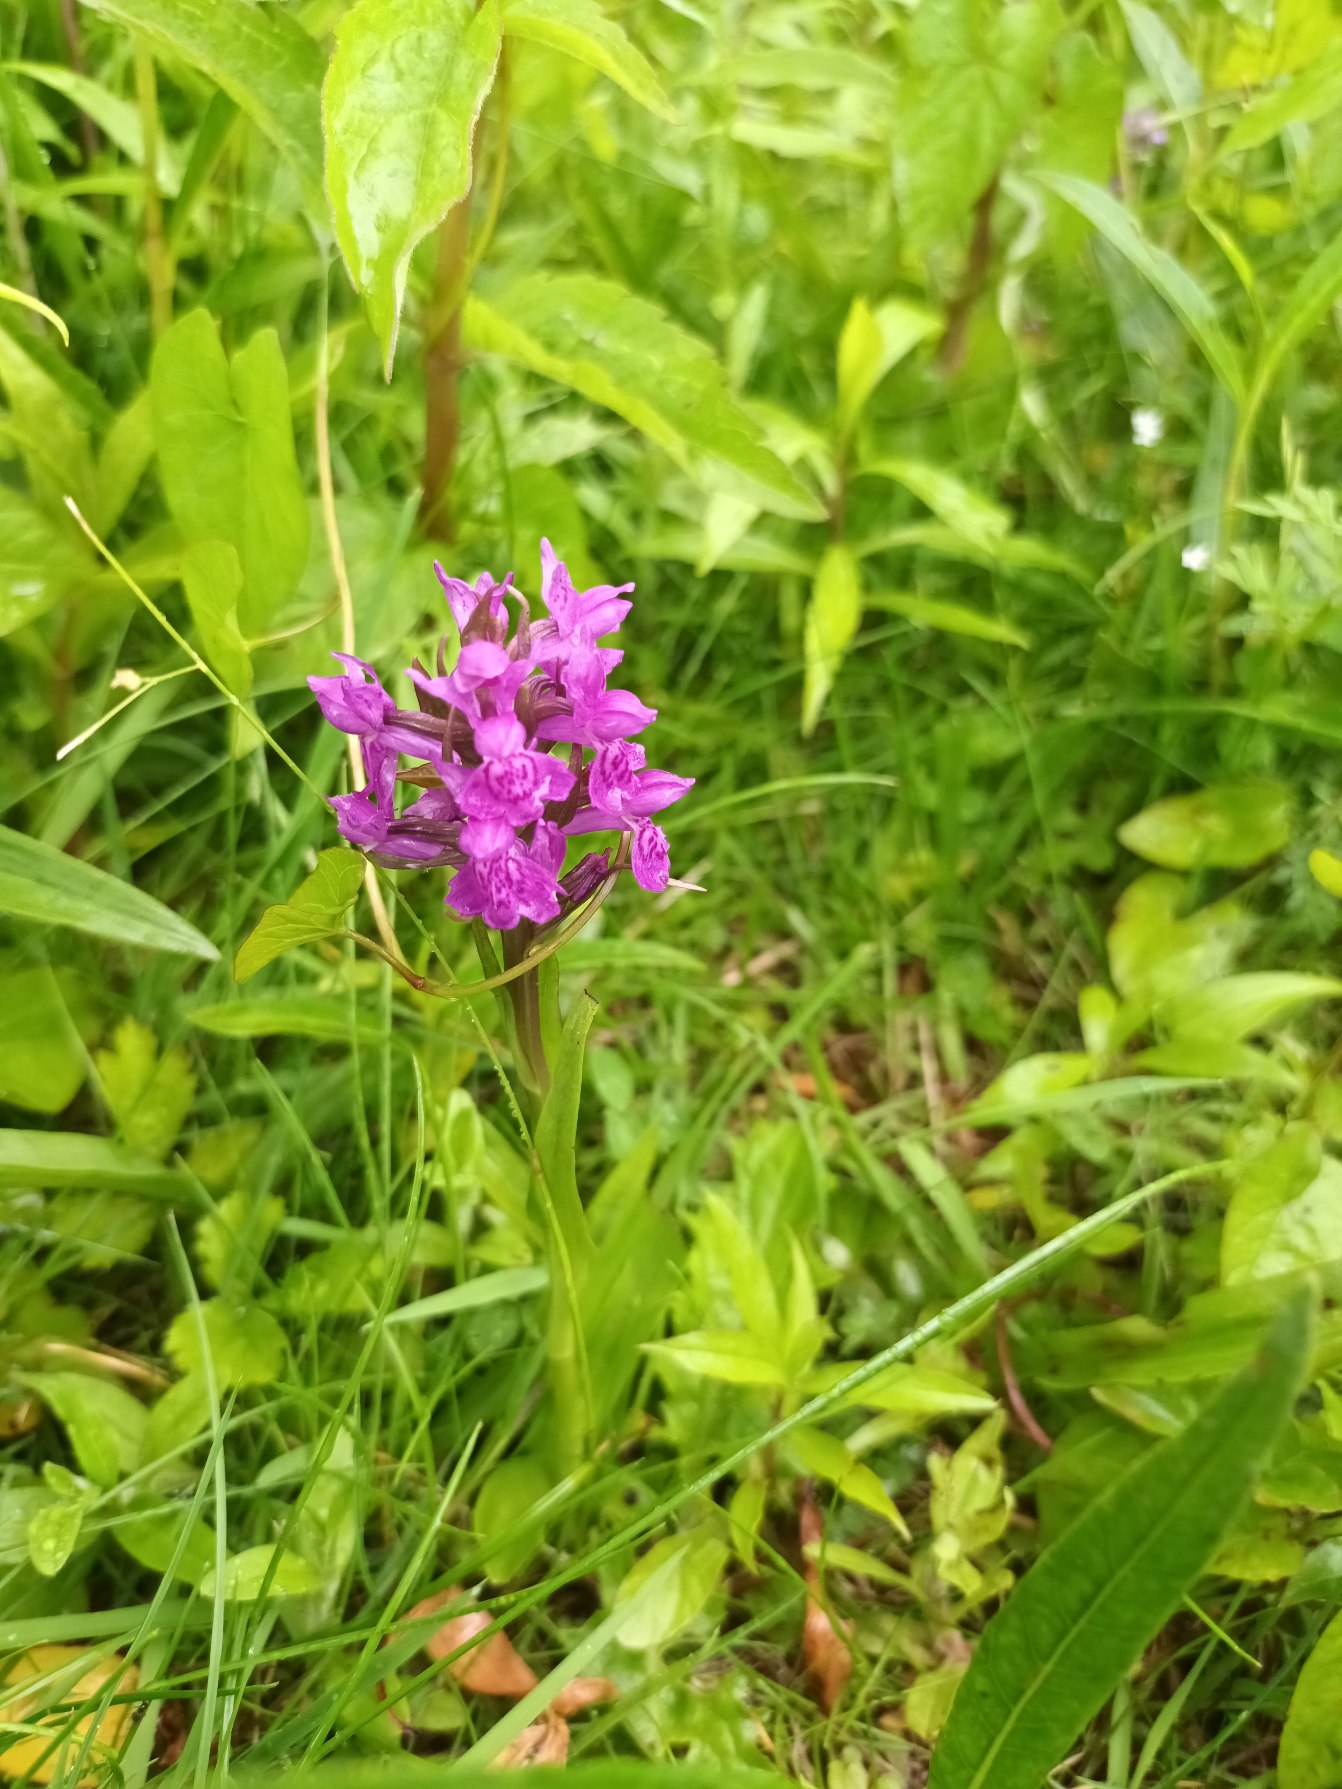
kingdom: Plantae
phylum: Tracheophyta
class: Liliopsida
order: Asparagales
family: Orchidaceae
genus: Dactylorhiza
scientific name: Dactylorhiza majalis
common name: Purpur-gøgeurt
